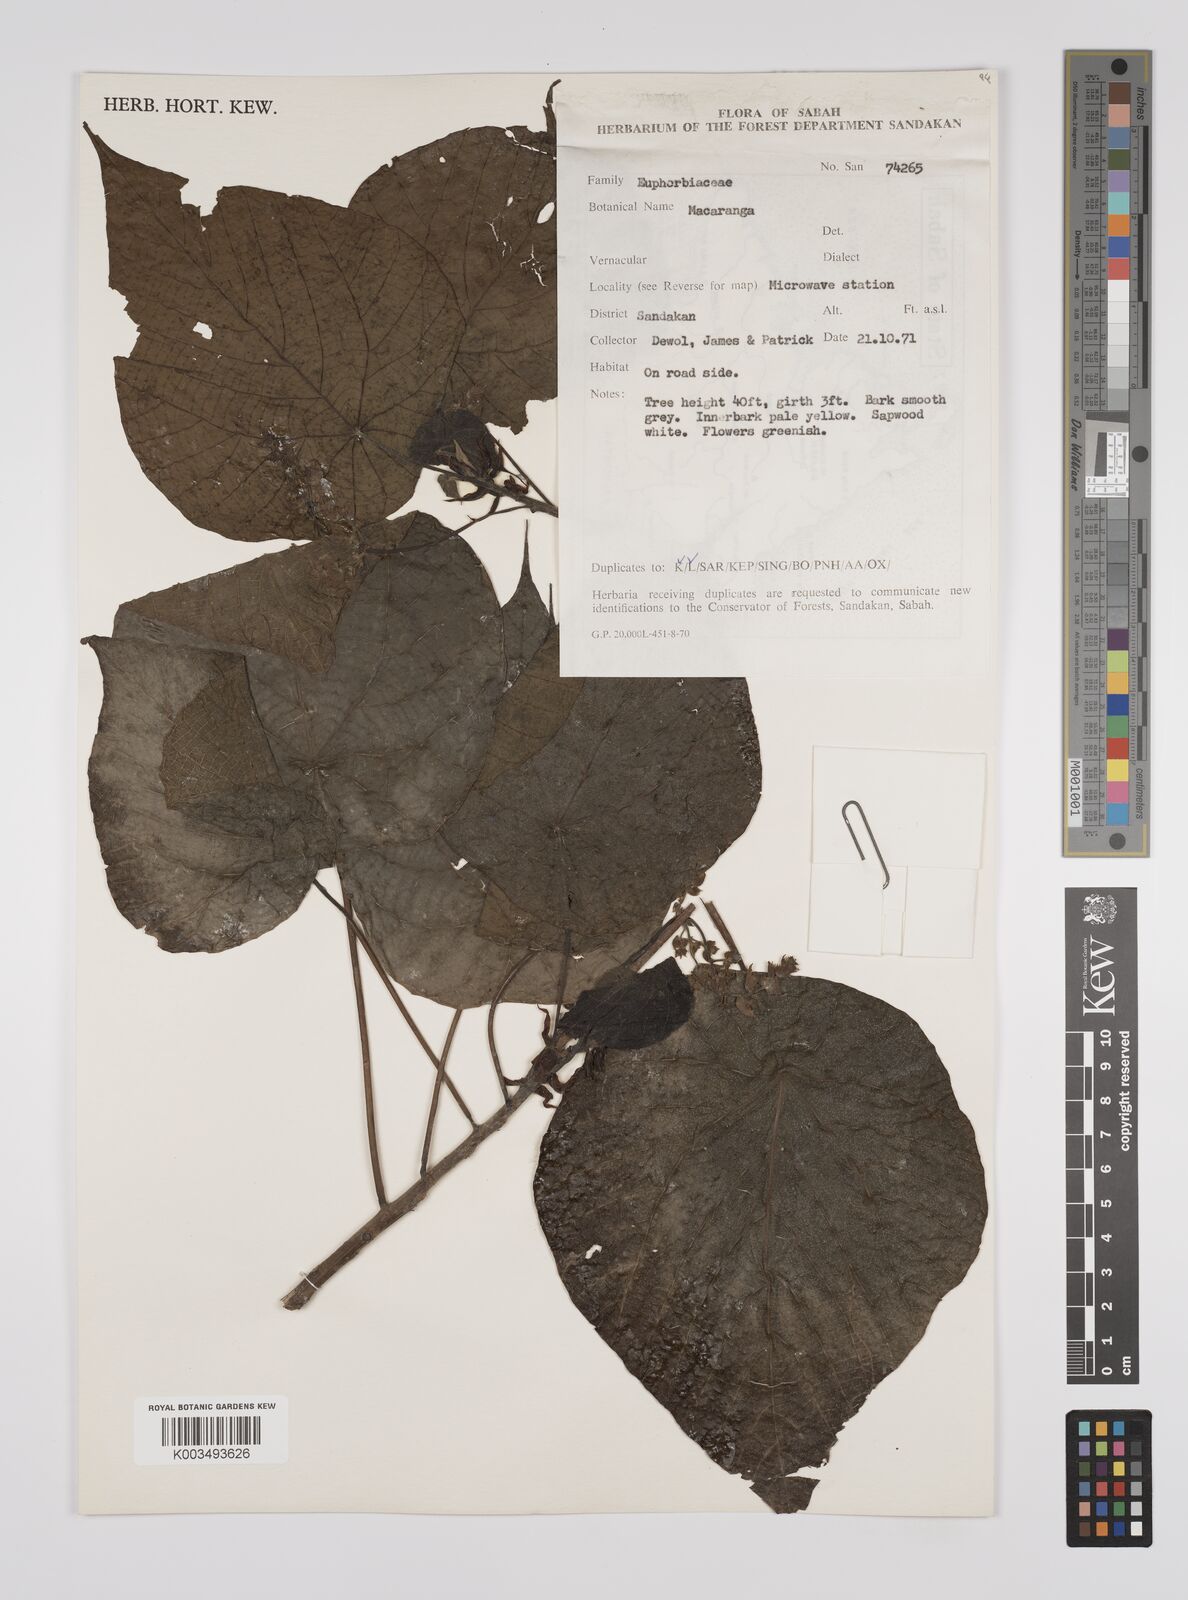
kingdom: Plantae
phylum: Tracheophyta
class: Magnoliopsida
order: Malpighiales
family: Euphorbiaceae
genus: Macaranga
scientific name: Macaranga tanarius
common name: Parasol leaf tree
